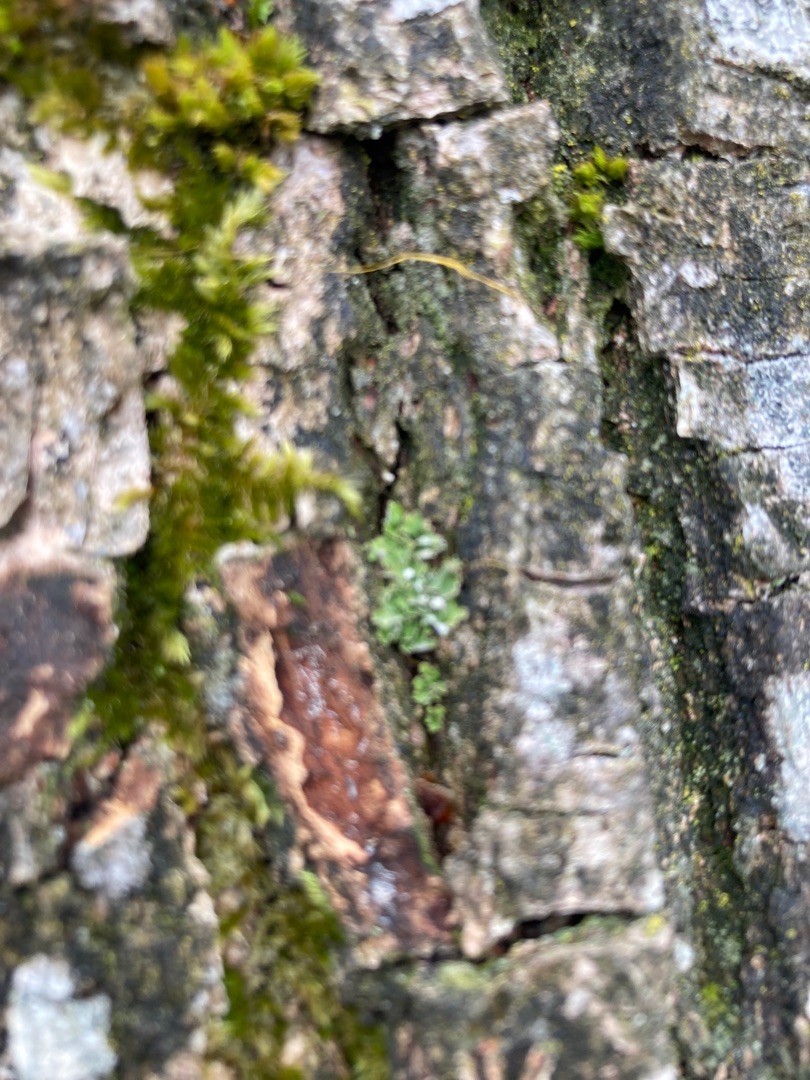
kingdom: Fungi
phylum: Ascomycota
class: Lecanoromycetes
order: Lecanorales
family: Cladoniaceae
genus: Cladonia
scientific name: Cladonia
